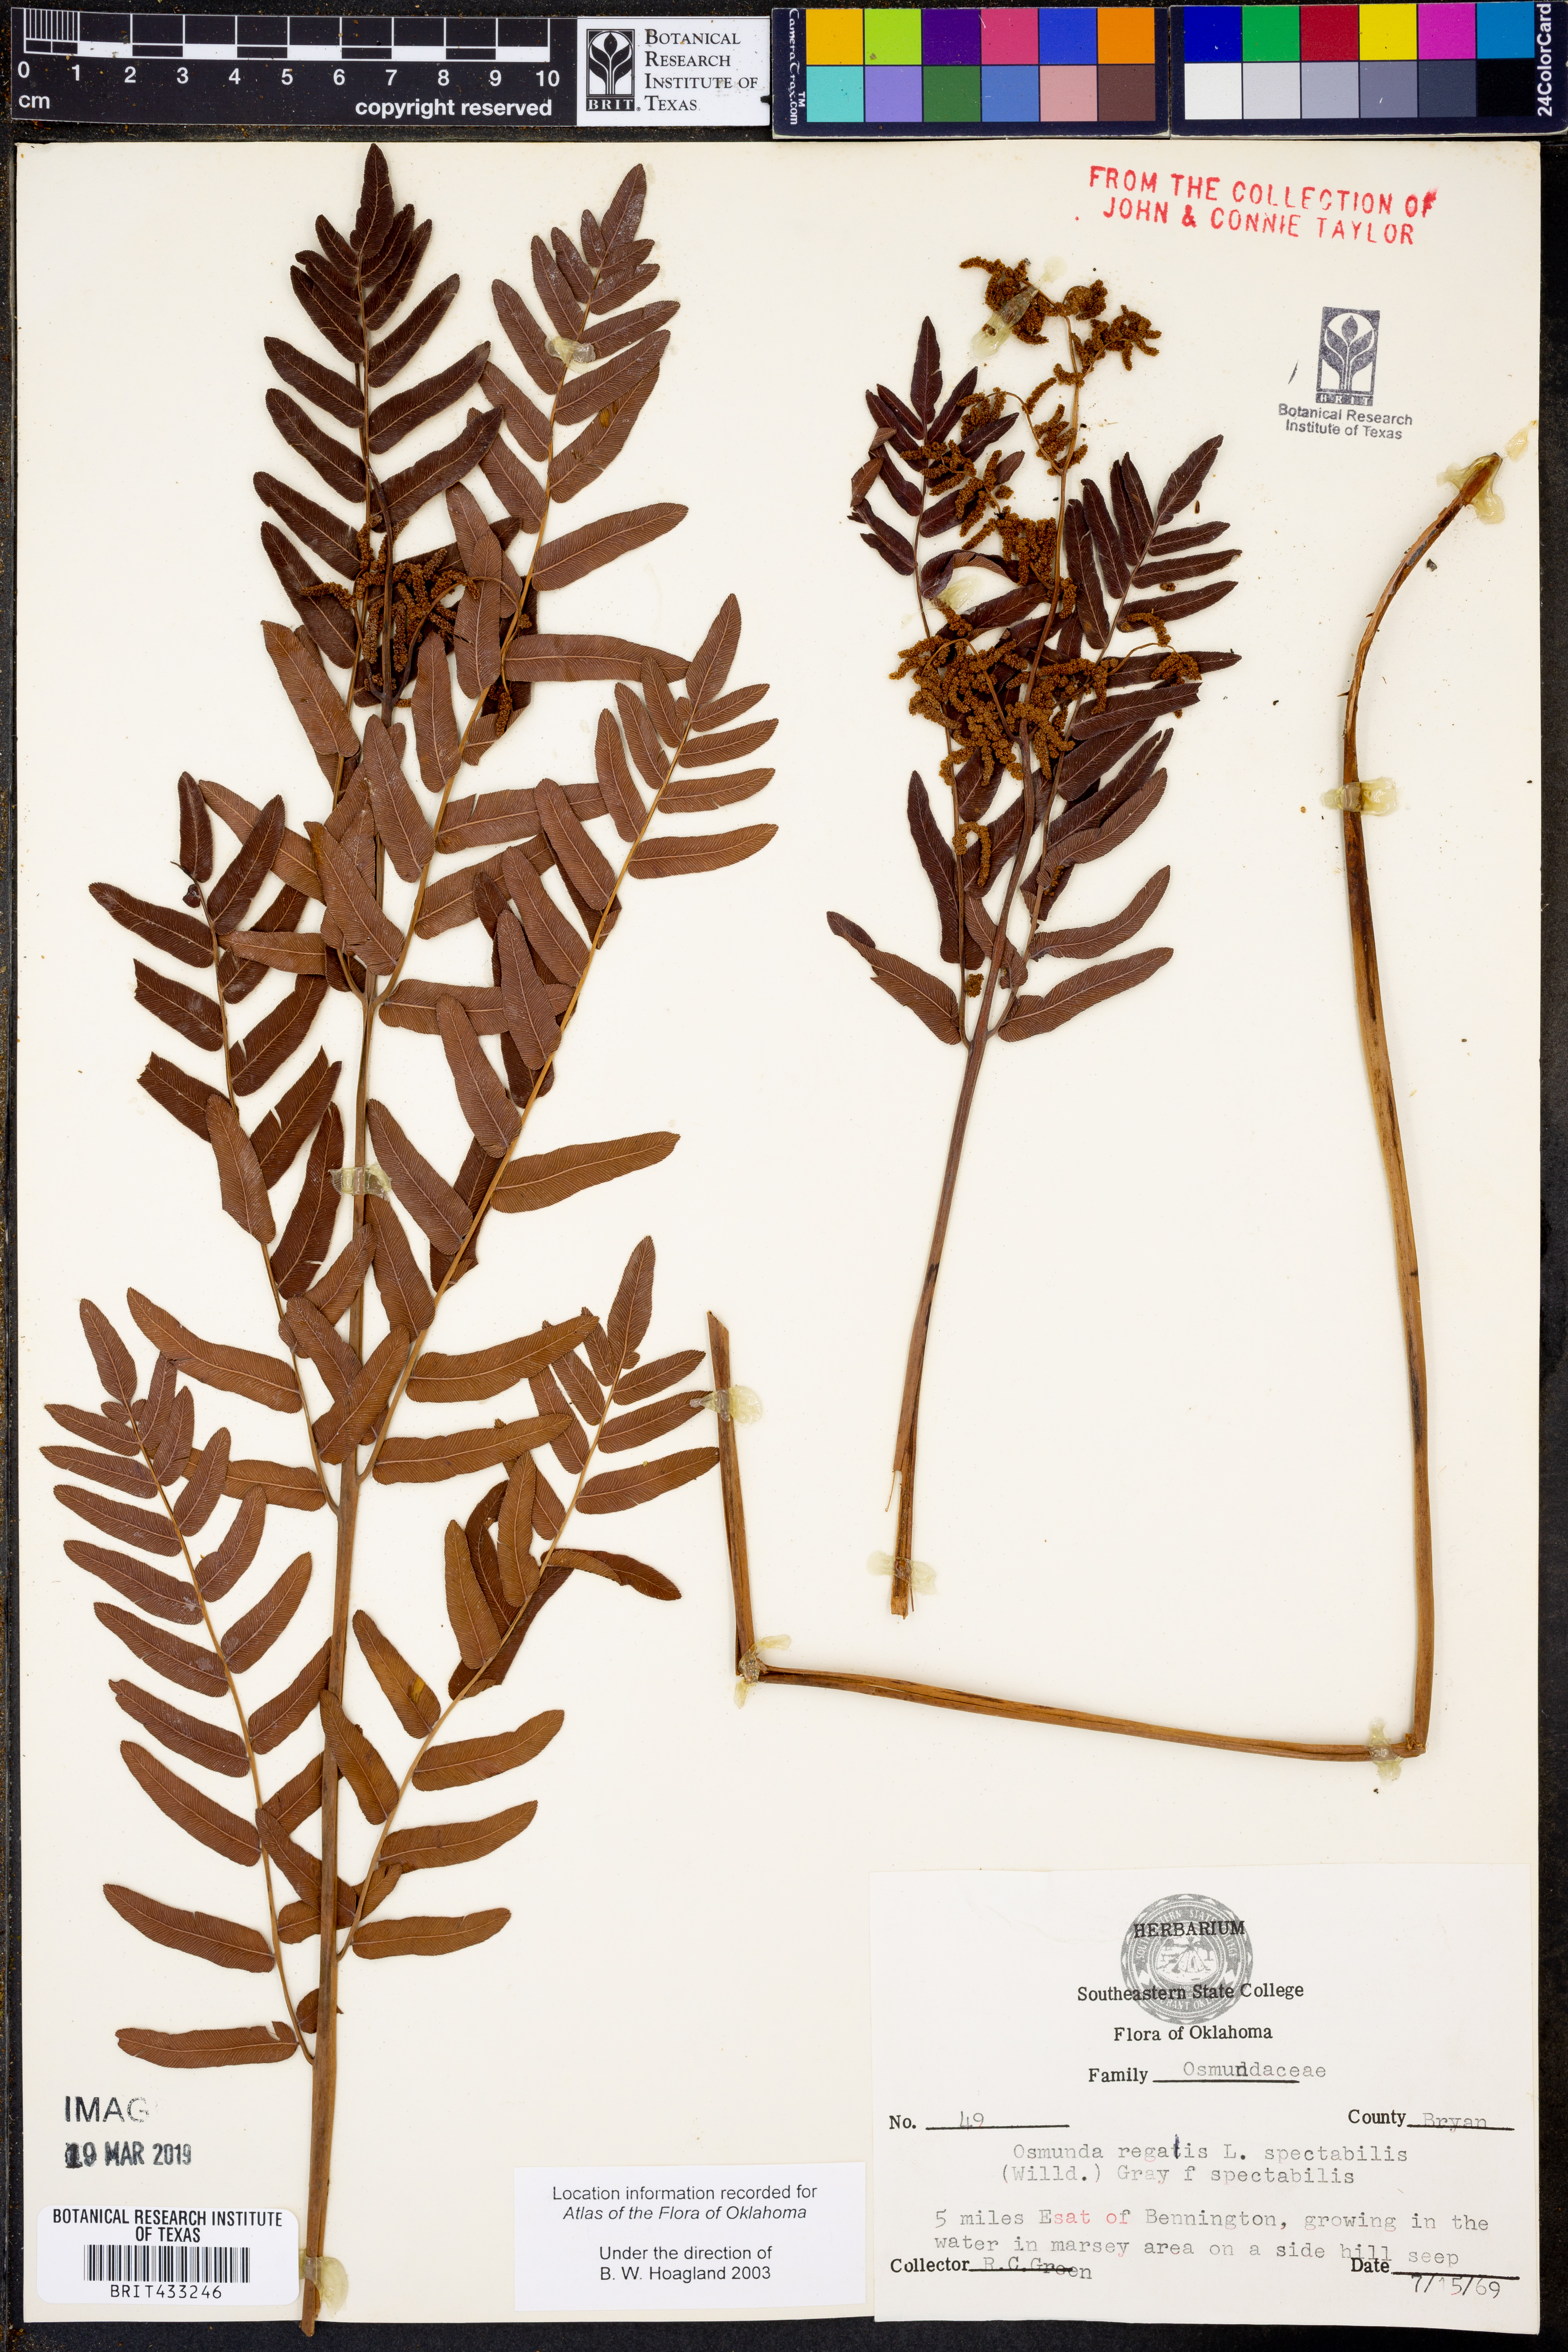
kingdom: Plantae
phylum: Tracheophyta
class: Polypodiopsida
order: Osmundales
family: Osmundaceae
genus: Osmunda
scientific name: Osmunda spectabilis
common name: American royal fern
